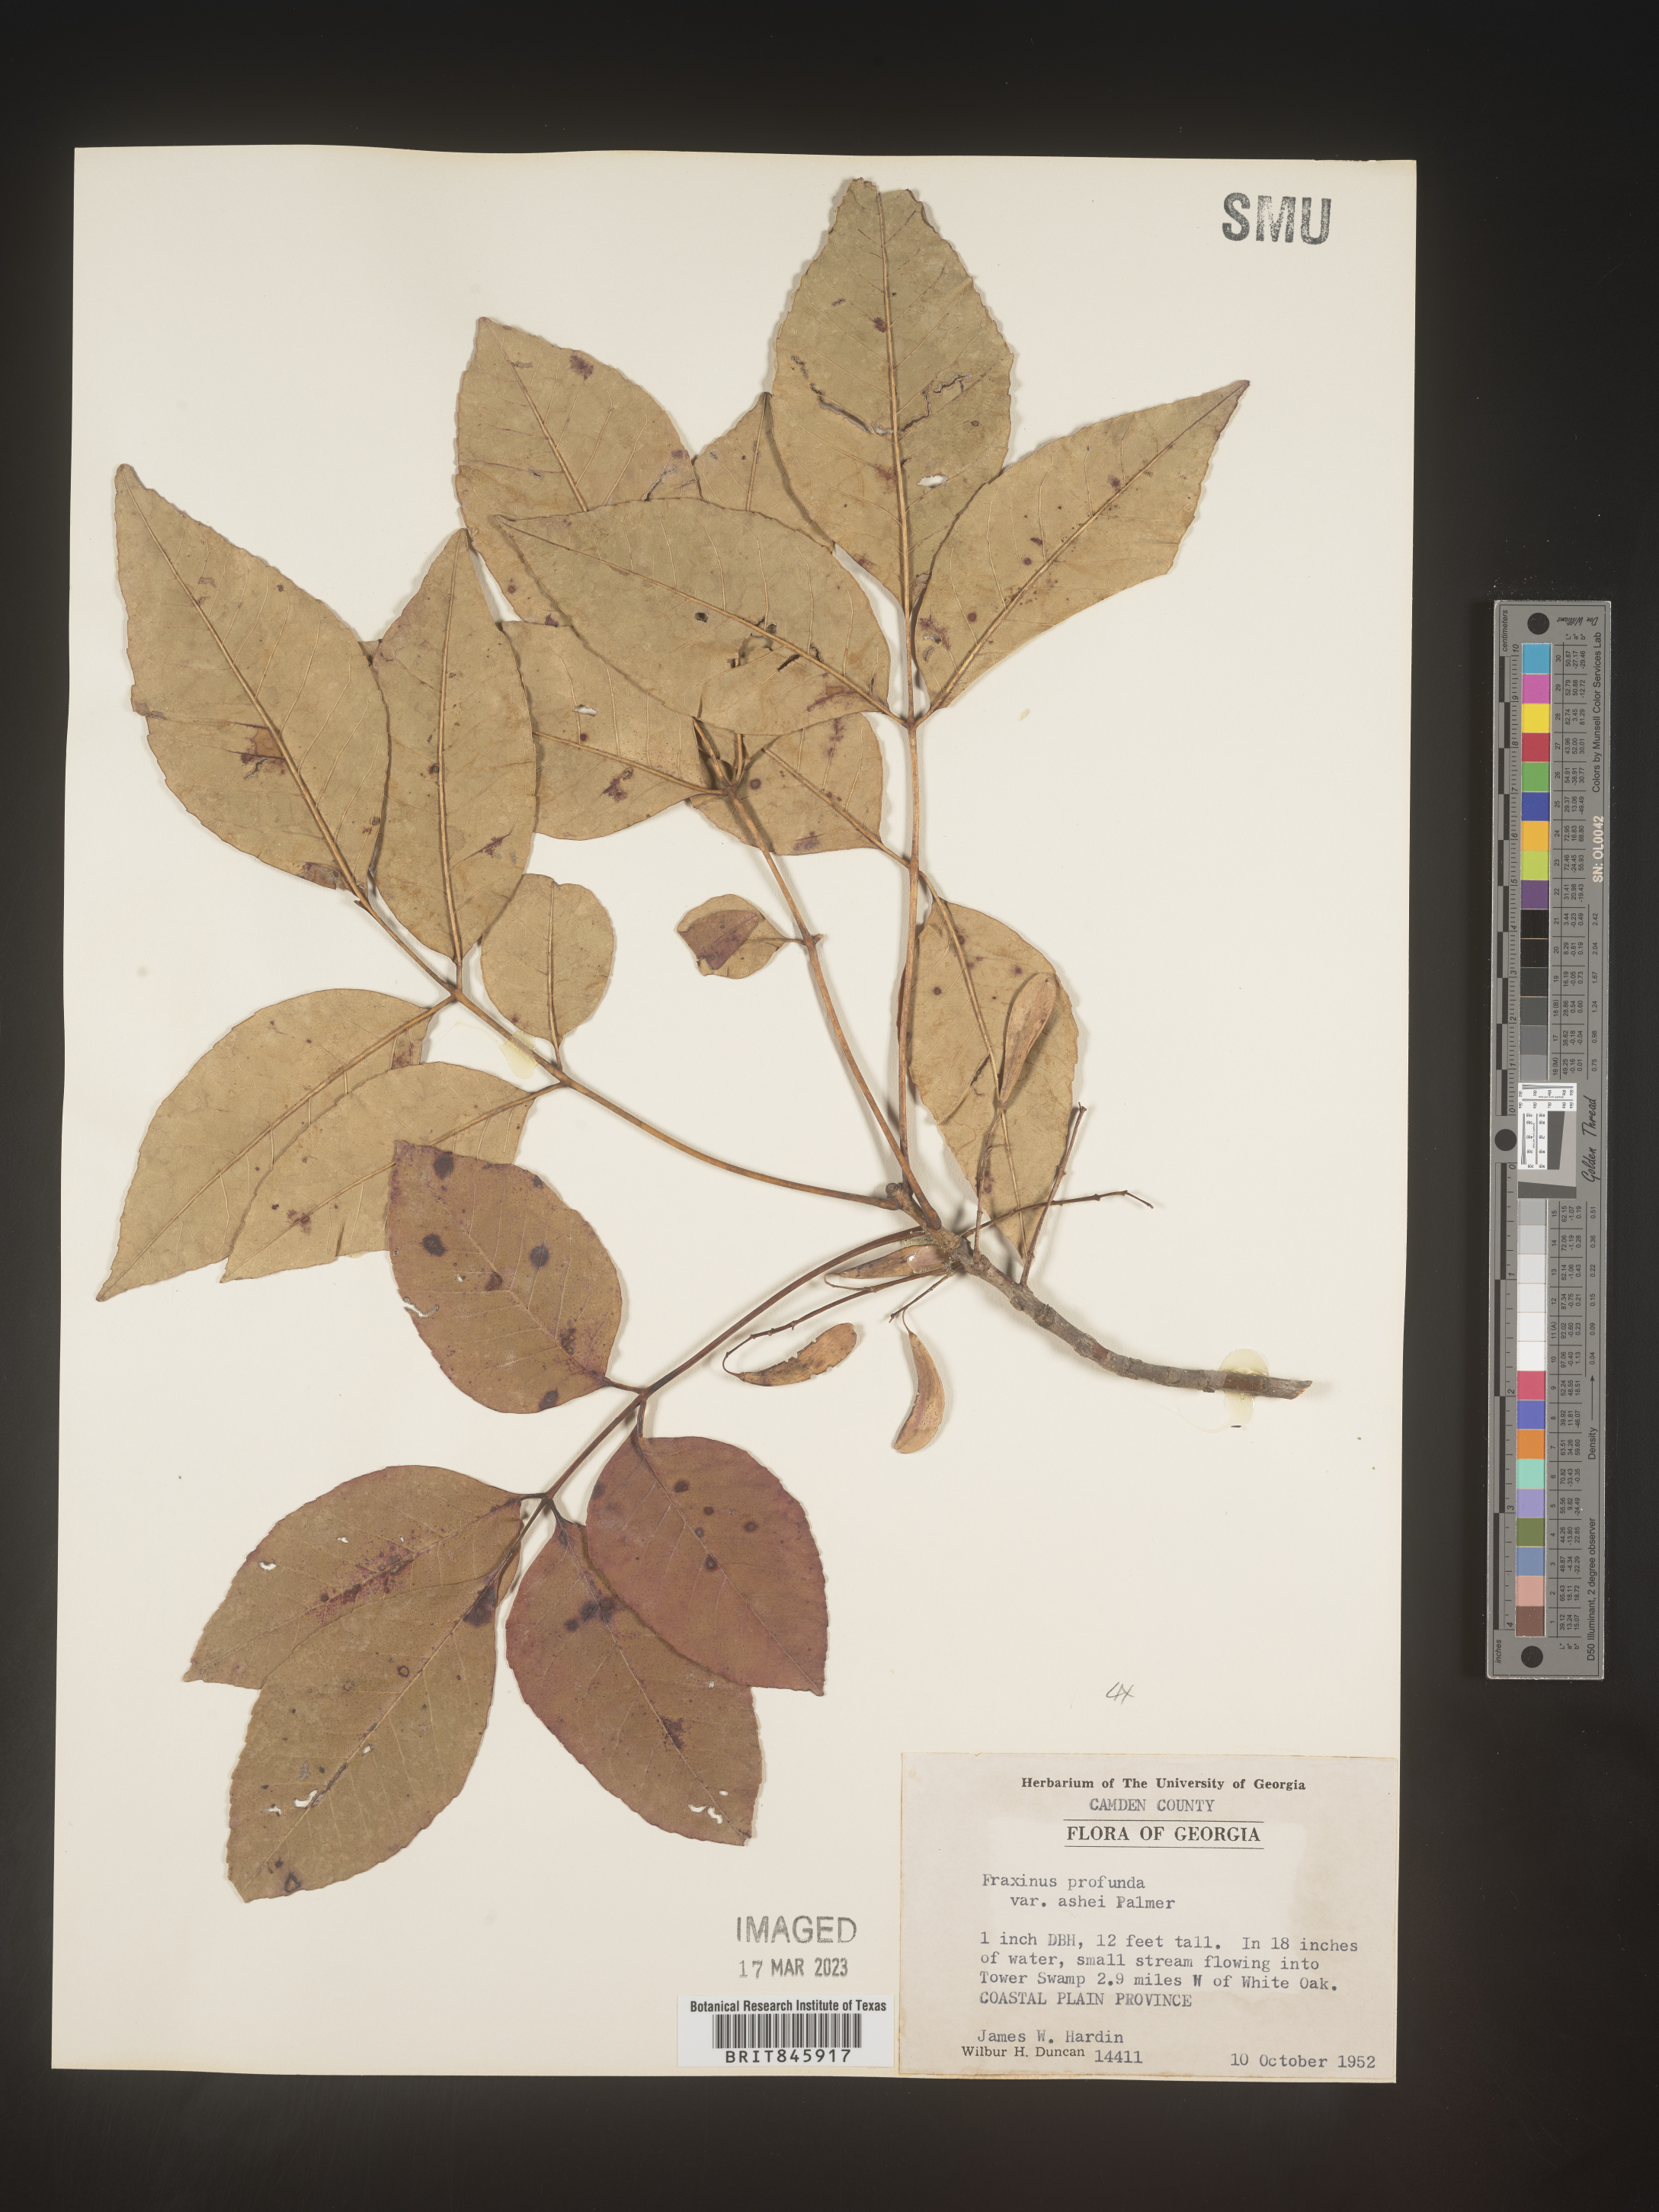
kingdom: Plantae
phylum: Tracheophyta
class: Magnoliopsida
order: Lamiales
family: Oleaceae
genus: Fraxinus
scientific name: Fraxinus americana
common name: White ash
